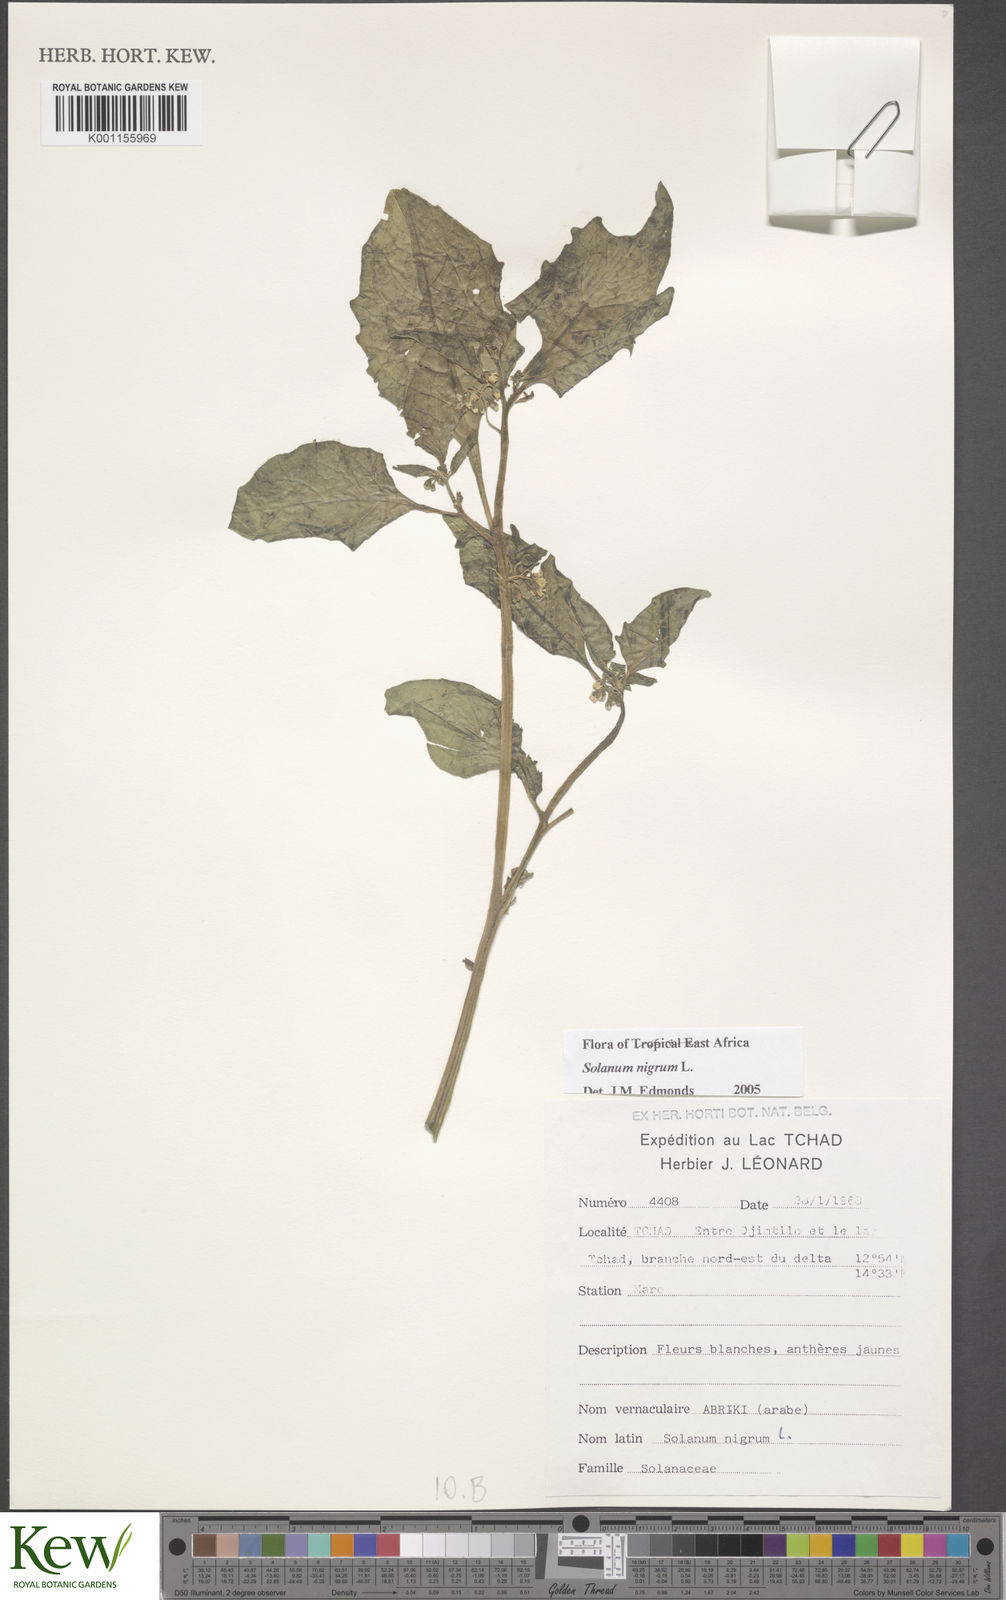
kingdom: Plantae
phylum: Tracheophyta
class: Magnoliopsida
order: Solanales
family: Solanaceae
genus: Solanum
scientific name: Solanum villosum
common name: Red nightshade
